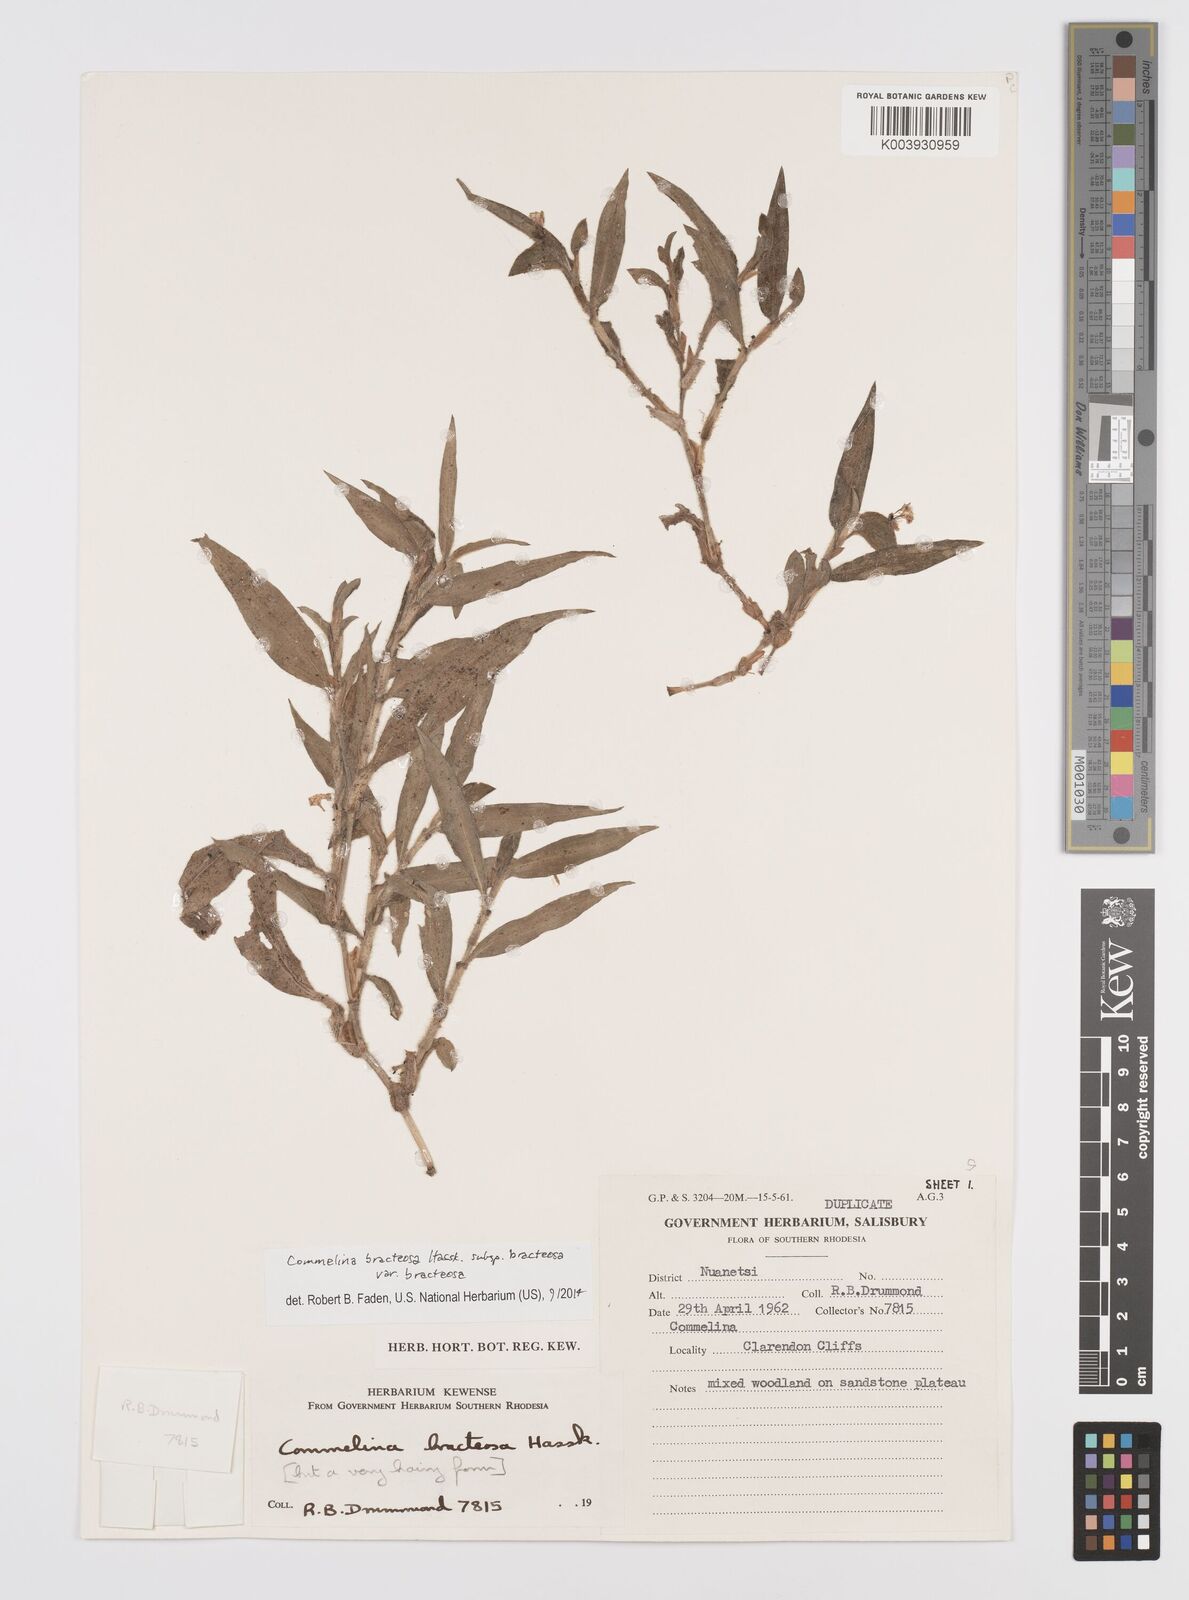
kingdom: Plantae
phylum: Tracheophyta
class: Liliopsida
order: Commelinales
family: Commelinaceae
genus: Commelina
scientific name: Commelina bracteosa
